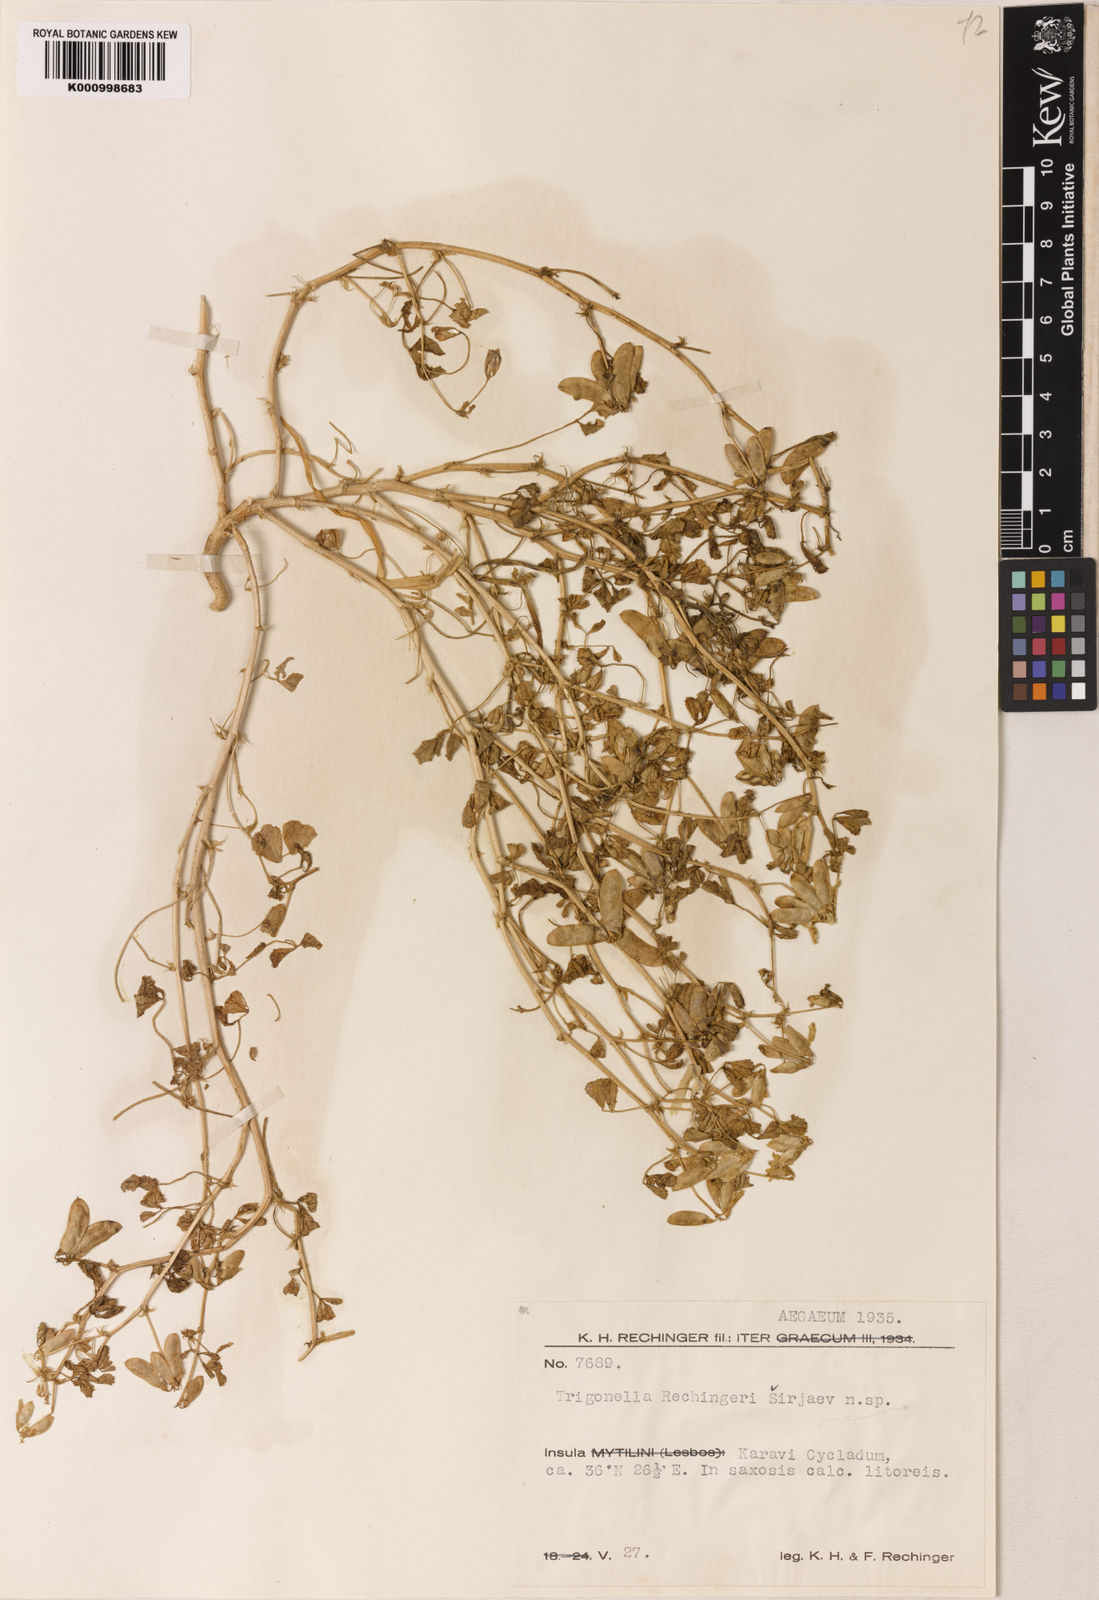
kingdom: Plantae
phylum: Tracheophyta
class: Magnoliopsida
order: Fabales
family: Fabaceae
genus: Trigonella
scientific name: Trigonella
